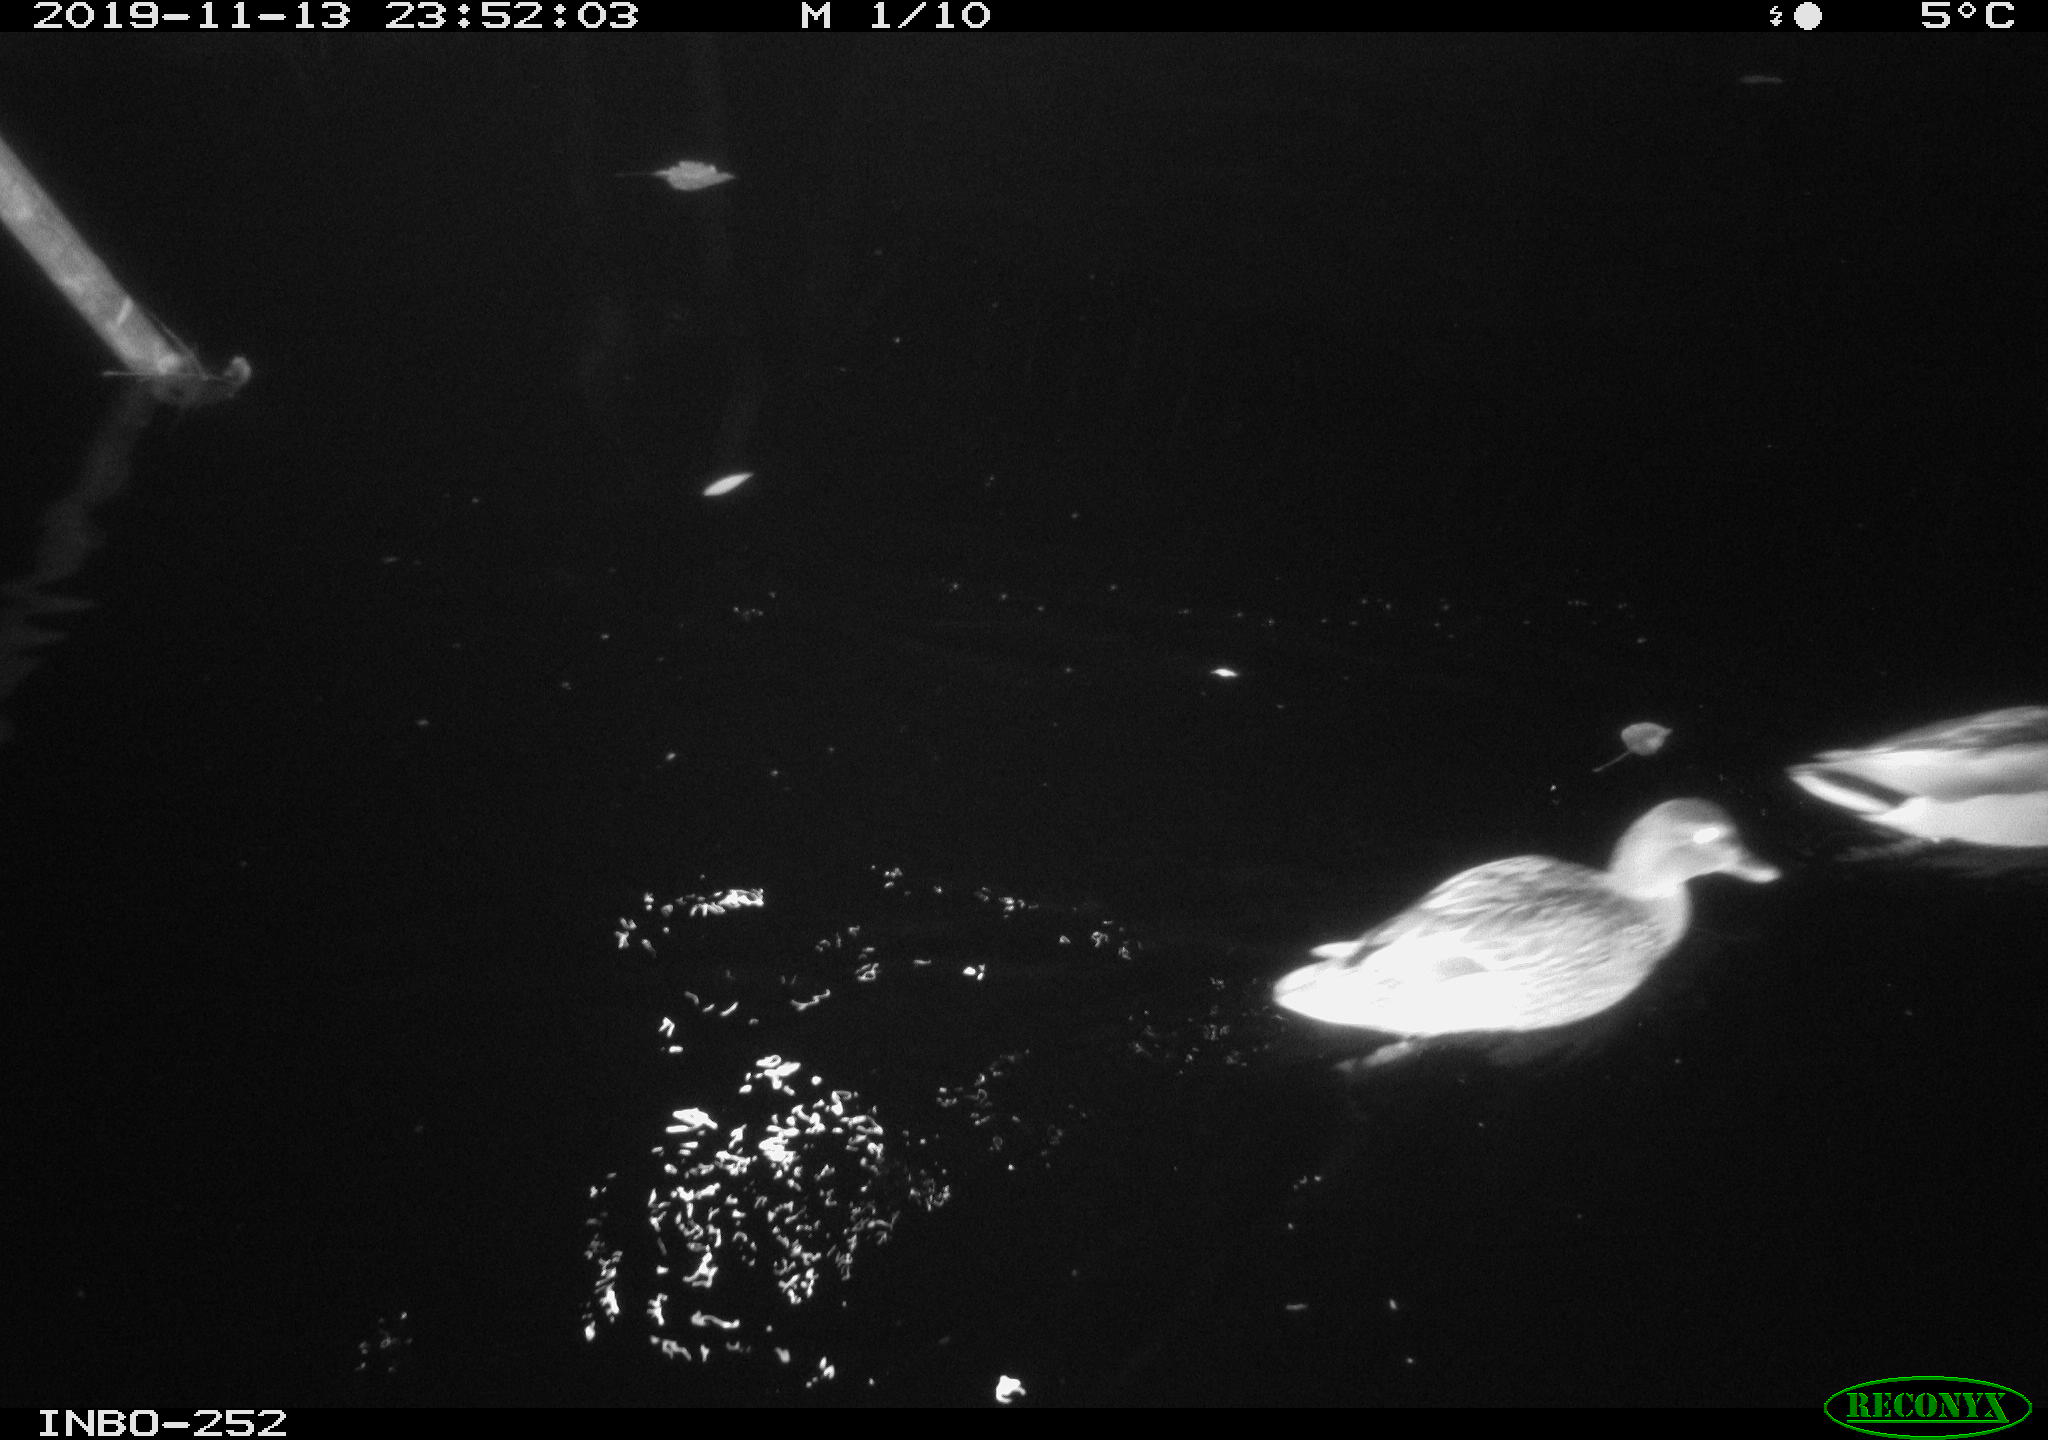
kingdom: Animalia
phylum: Chordata
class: Aves
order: Anseriformes
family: Anatidae
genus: Anas
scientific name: Anas platyrhynchos
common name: Mallard
